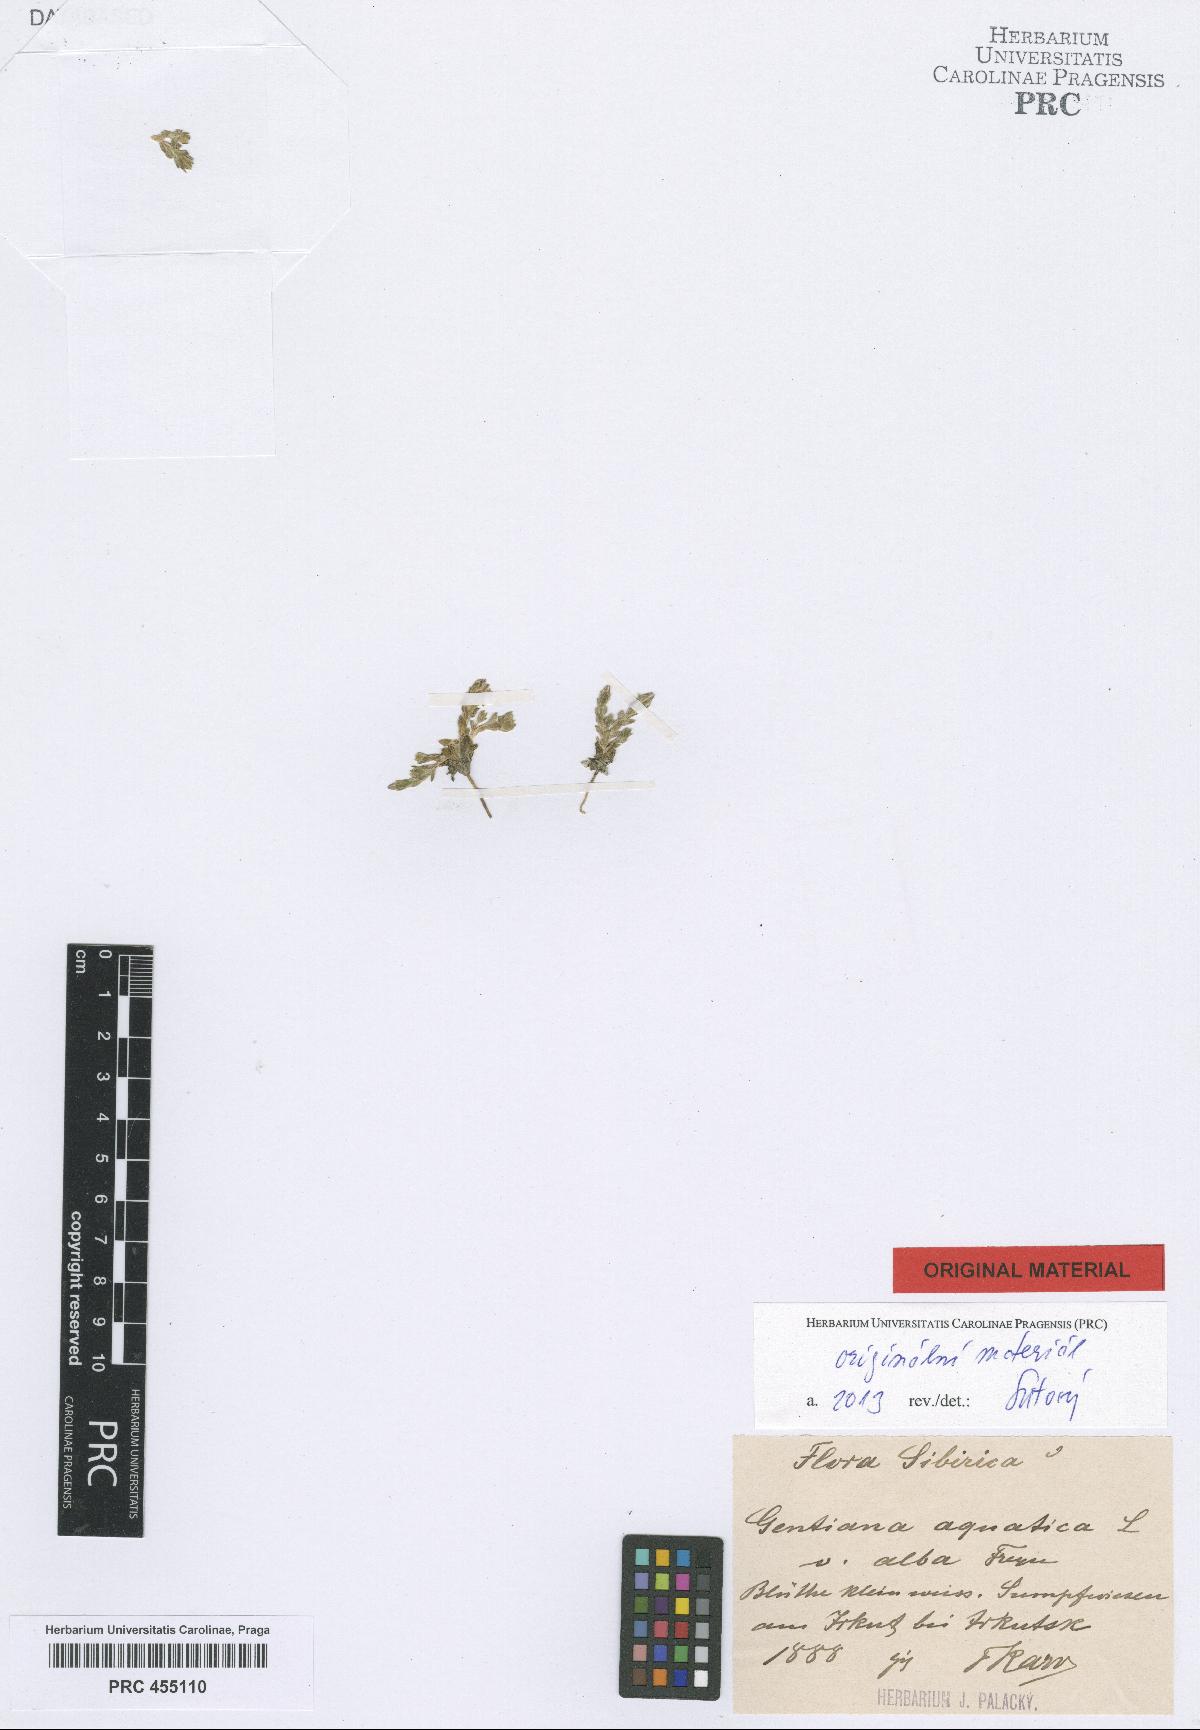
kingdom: Plantae
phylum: Tracheophyta
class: Magnoliopsida
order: Gentianales
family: Gentianaceae
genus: Gentiana
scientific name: Gentiana leucomelaena
